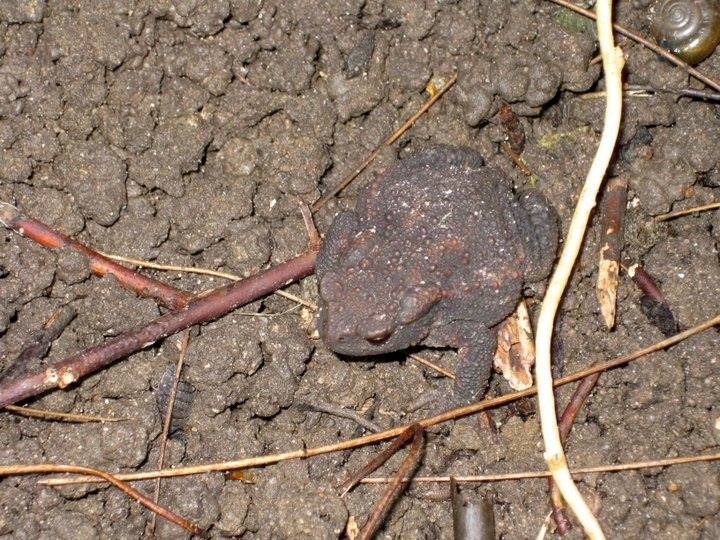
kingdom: Animalia
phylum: Chordata
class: Amphibia
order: Anura
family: Bufonidae
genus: Bufo
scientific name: Bufo bufo
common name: Skrubtudse
